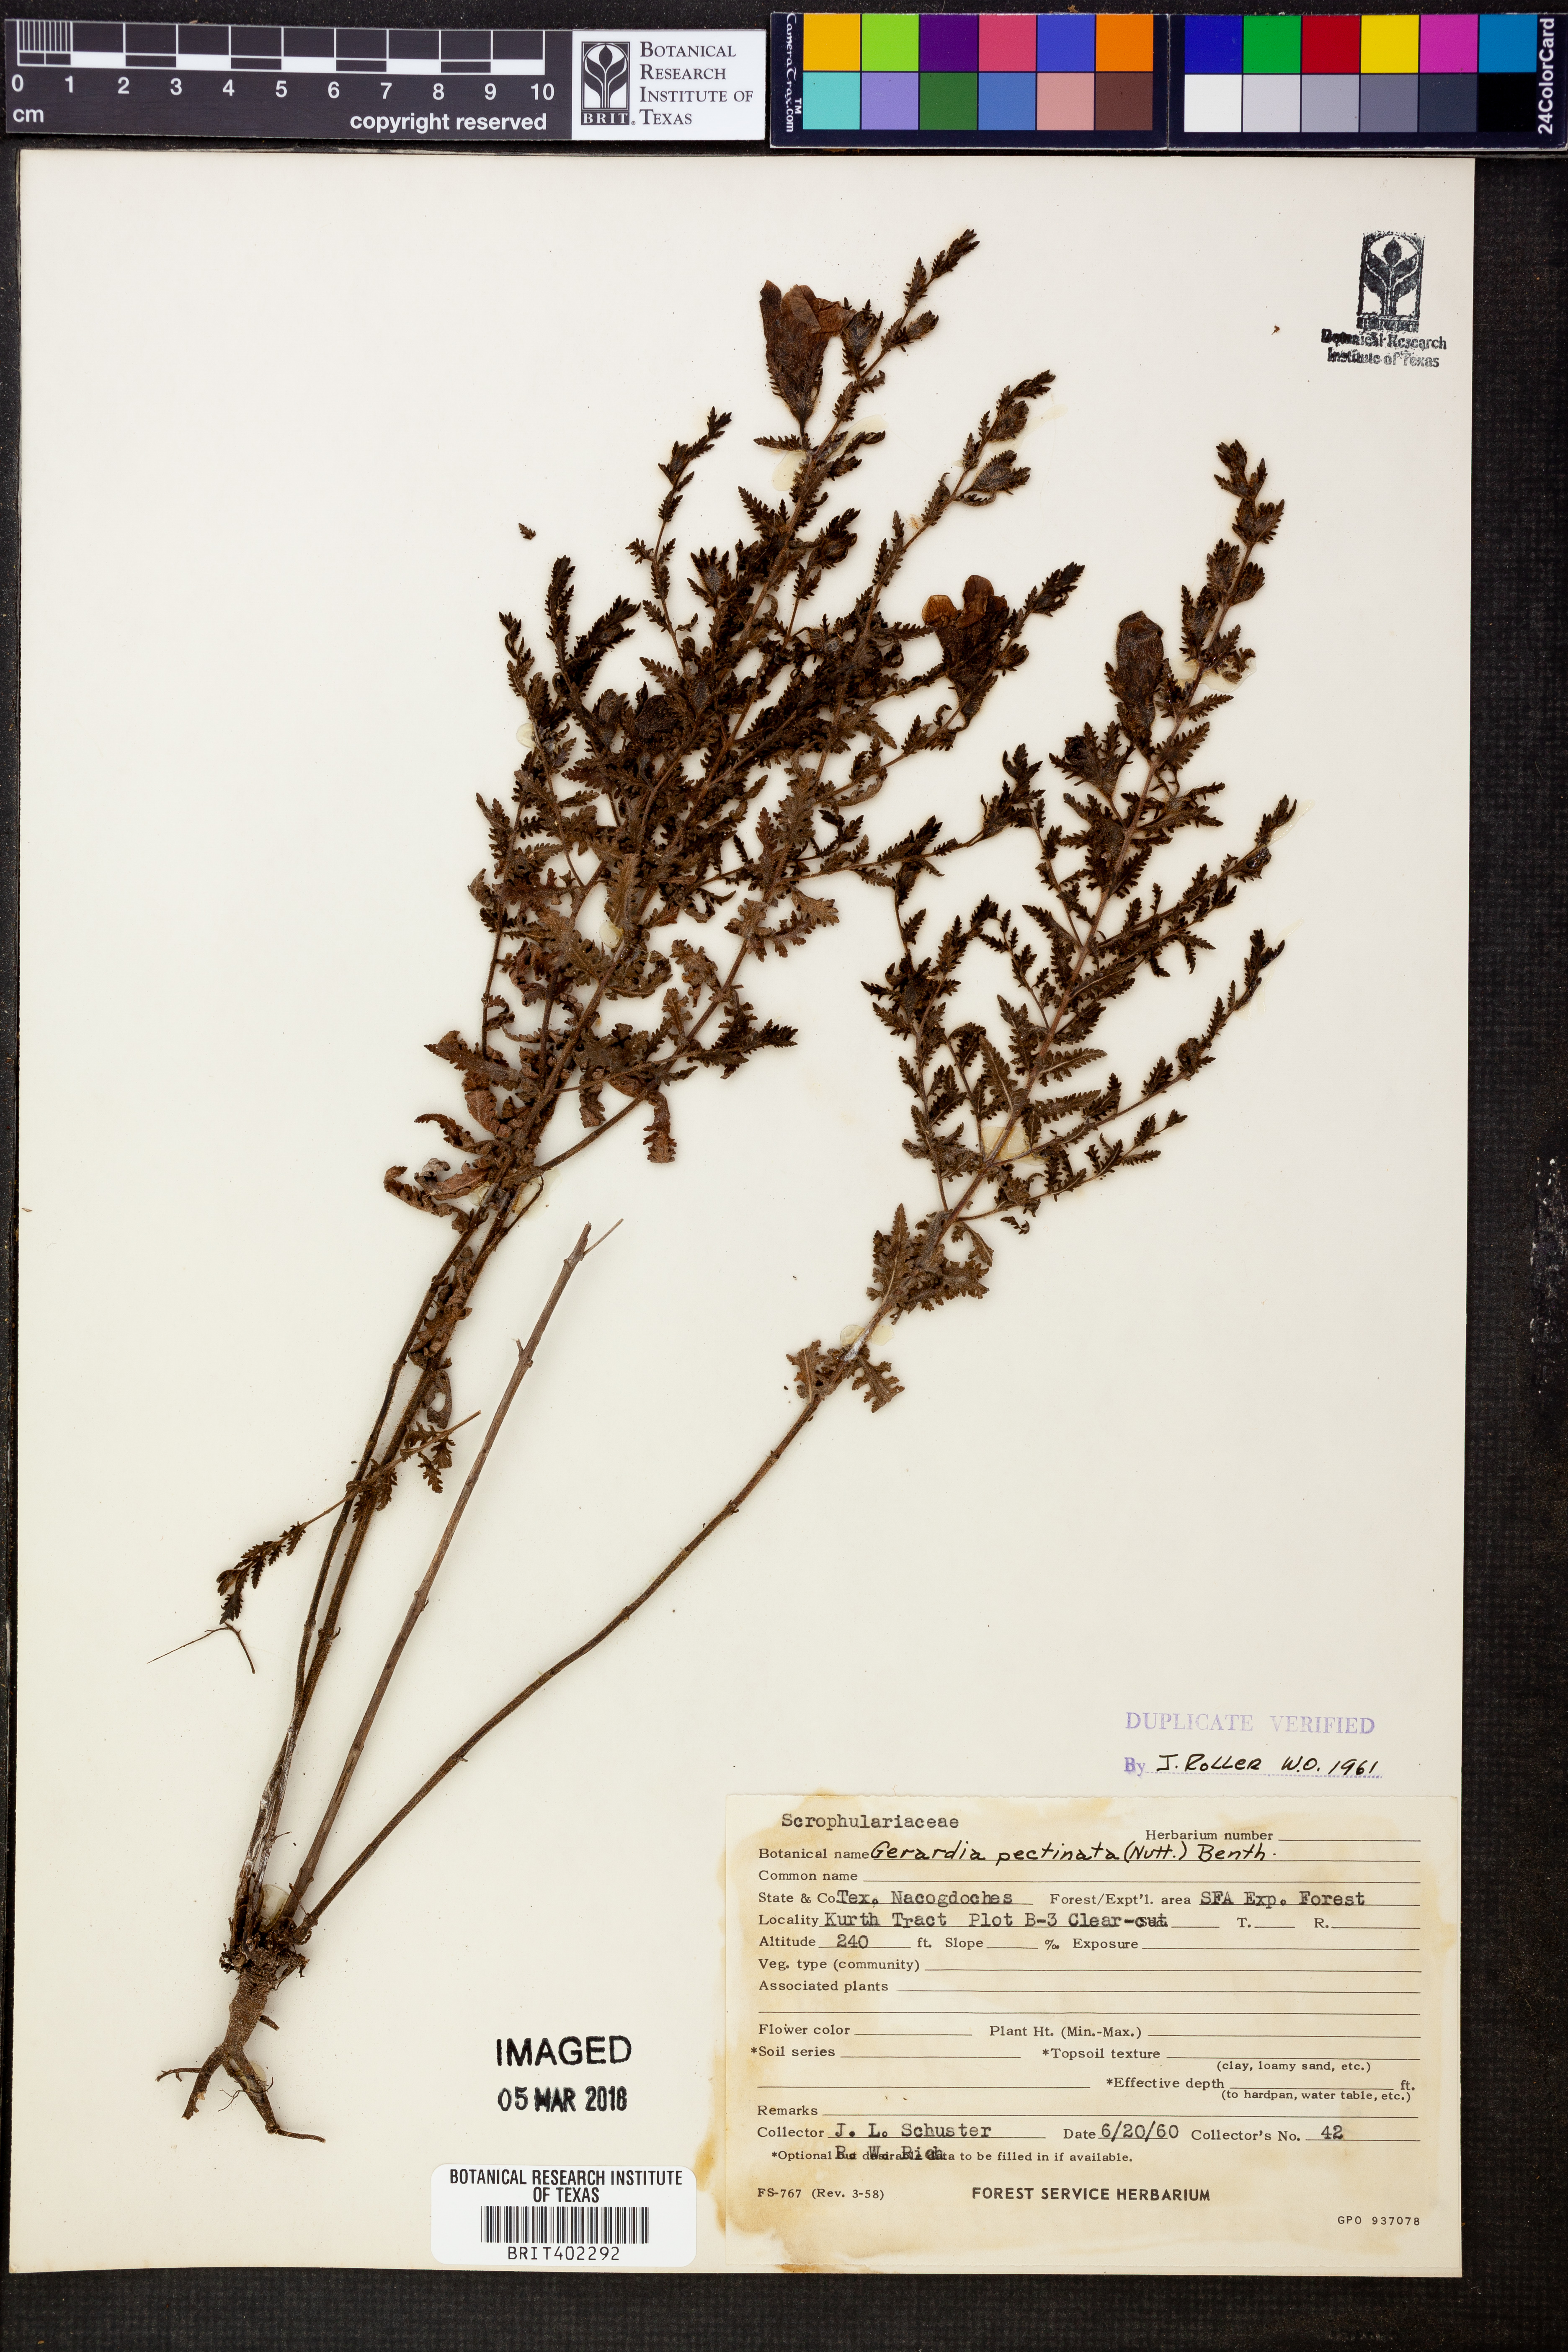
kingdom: Plantae
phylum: Tracheophyta
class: Magnoliopsida
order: Lamiales
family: Orobanchaceae
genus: Aureolaria
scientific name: Aureolaria pectinata
